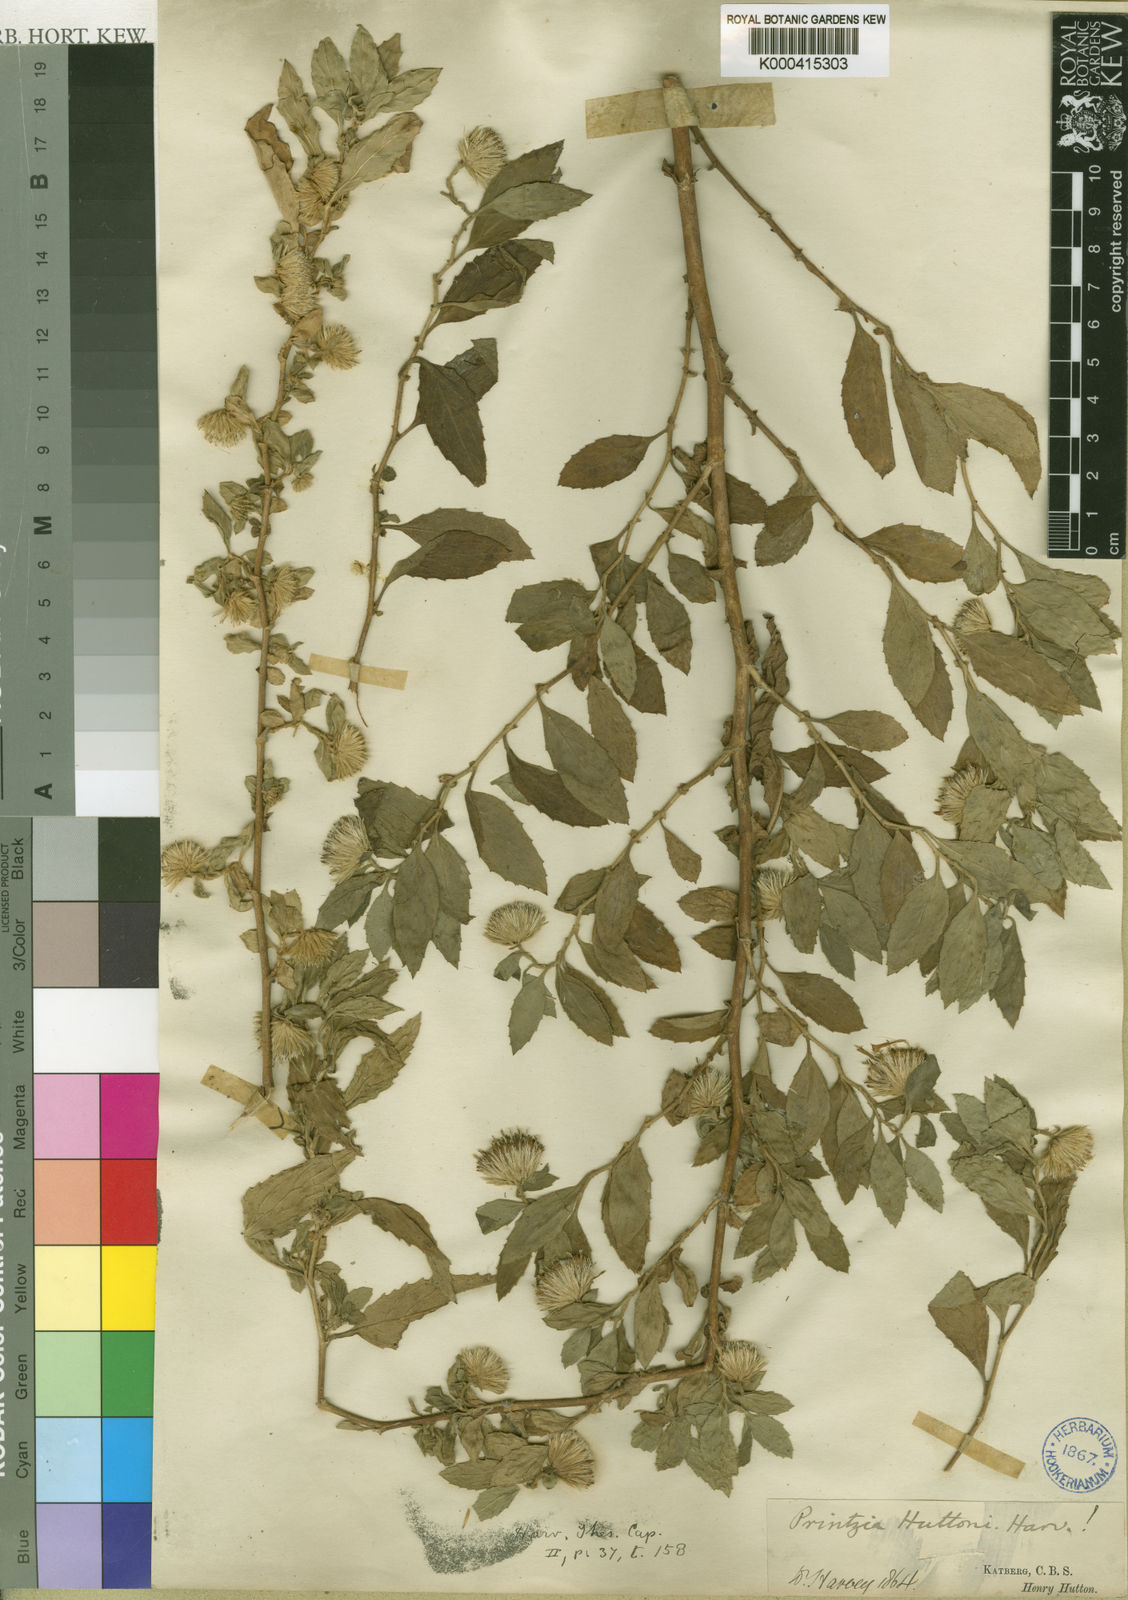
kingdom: Plantae
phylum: Tracheophyta
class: Magnoliopsida
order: Asterales
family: Asteraceae
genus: Printzia
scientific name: Printzia huttonii
